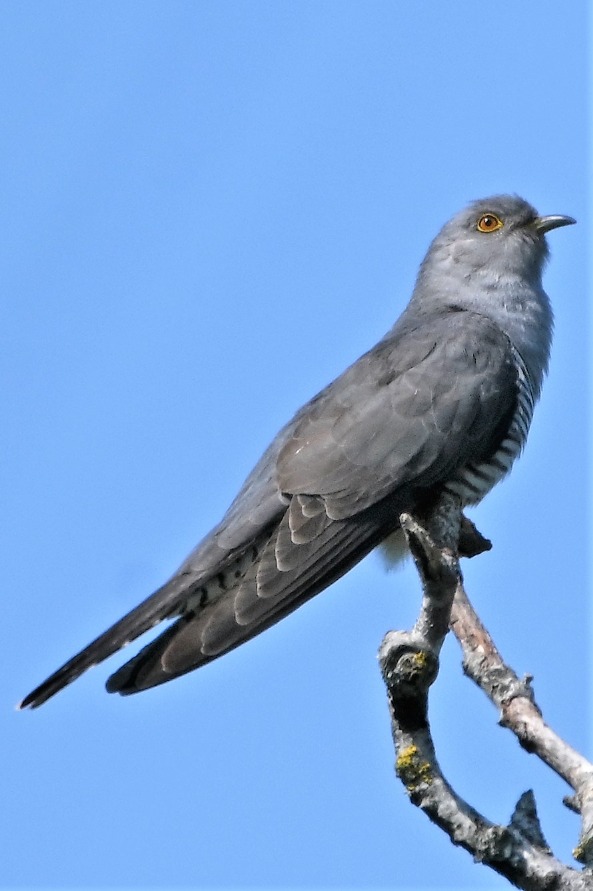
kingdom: Animalia
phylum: Chordata
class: Aves
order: Cuculiformes
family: Cuculidae
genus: Cuculus
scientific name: Cuculus canorus
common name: Gøg
